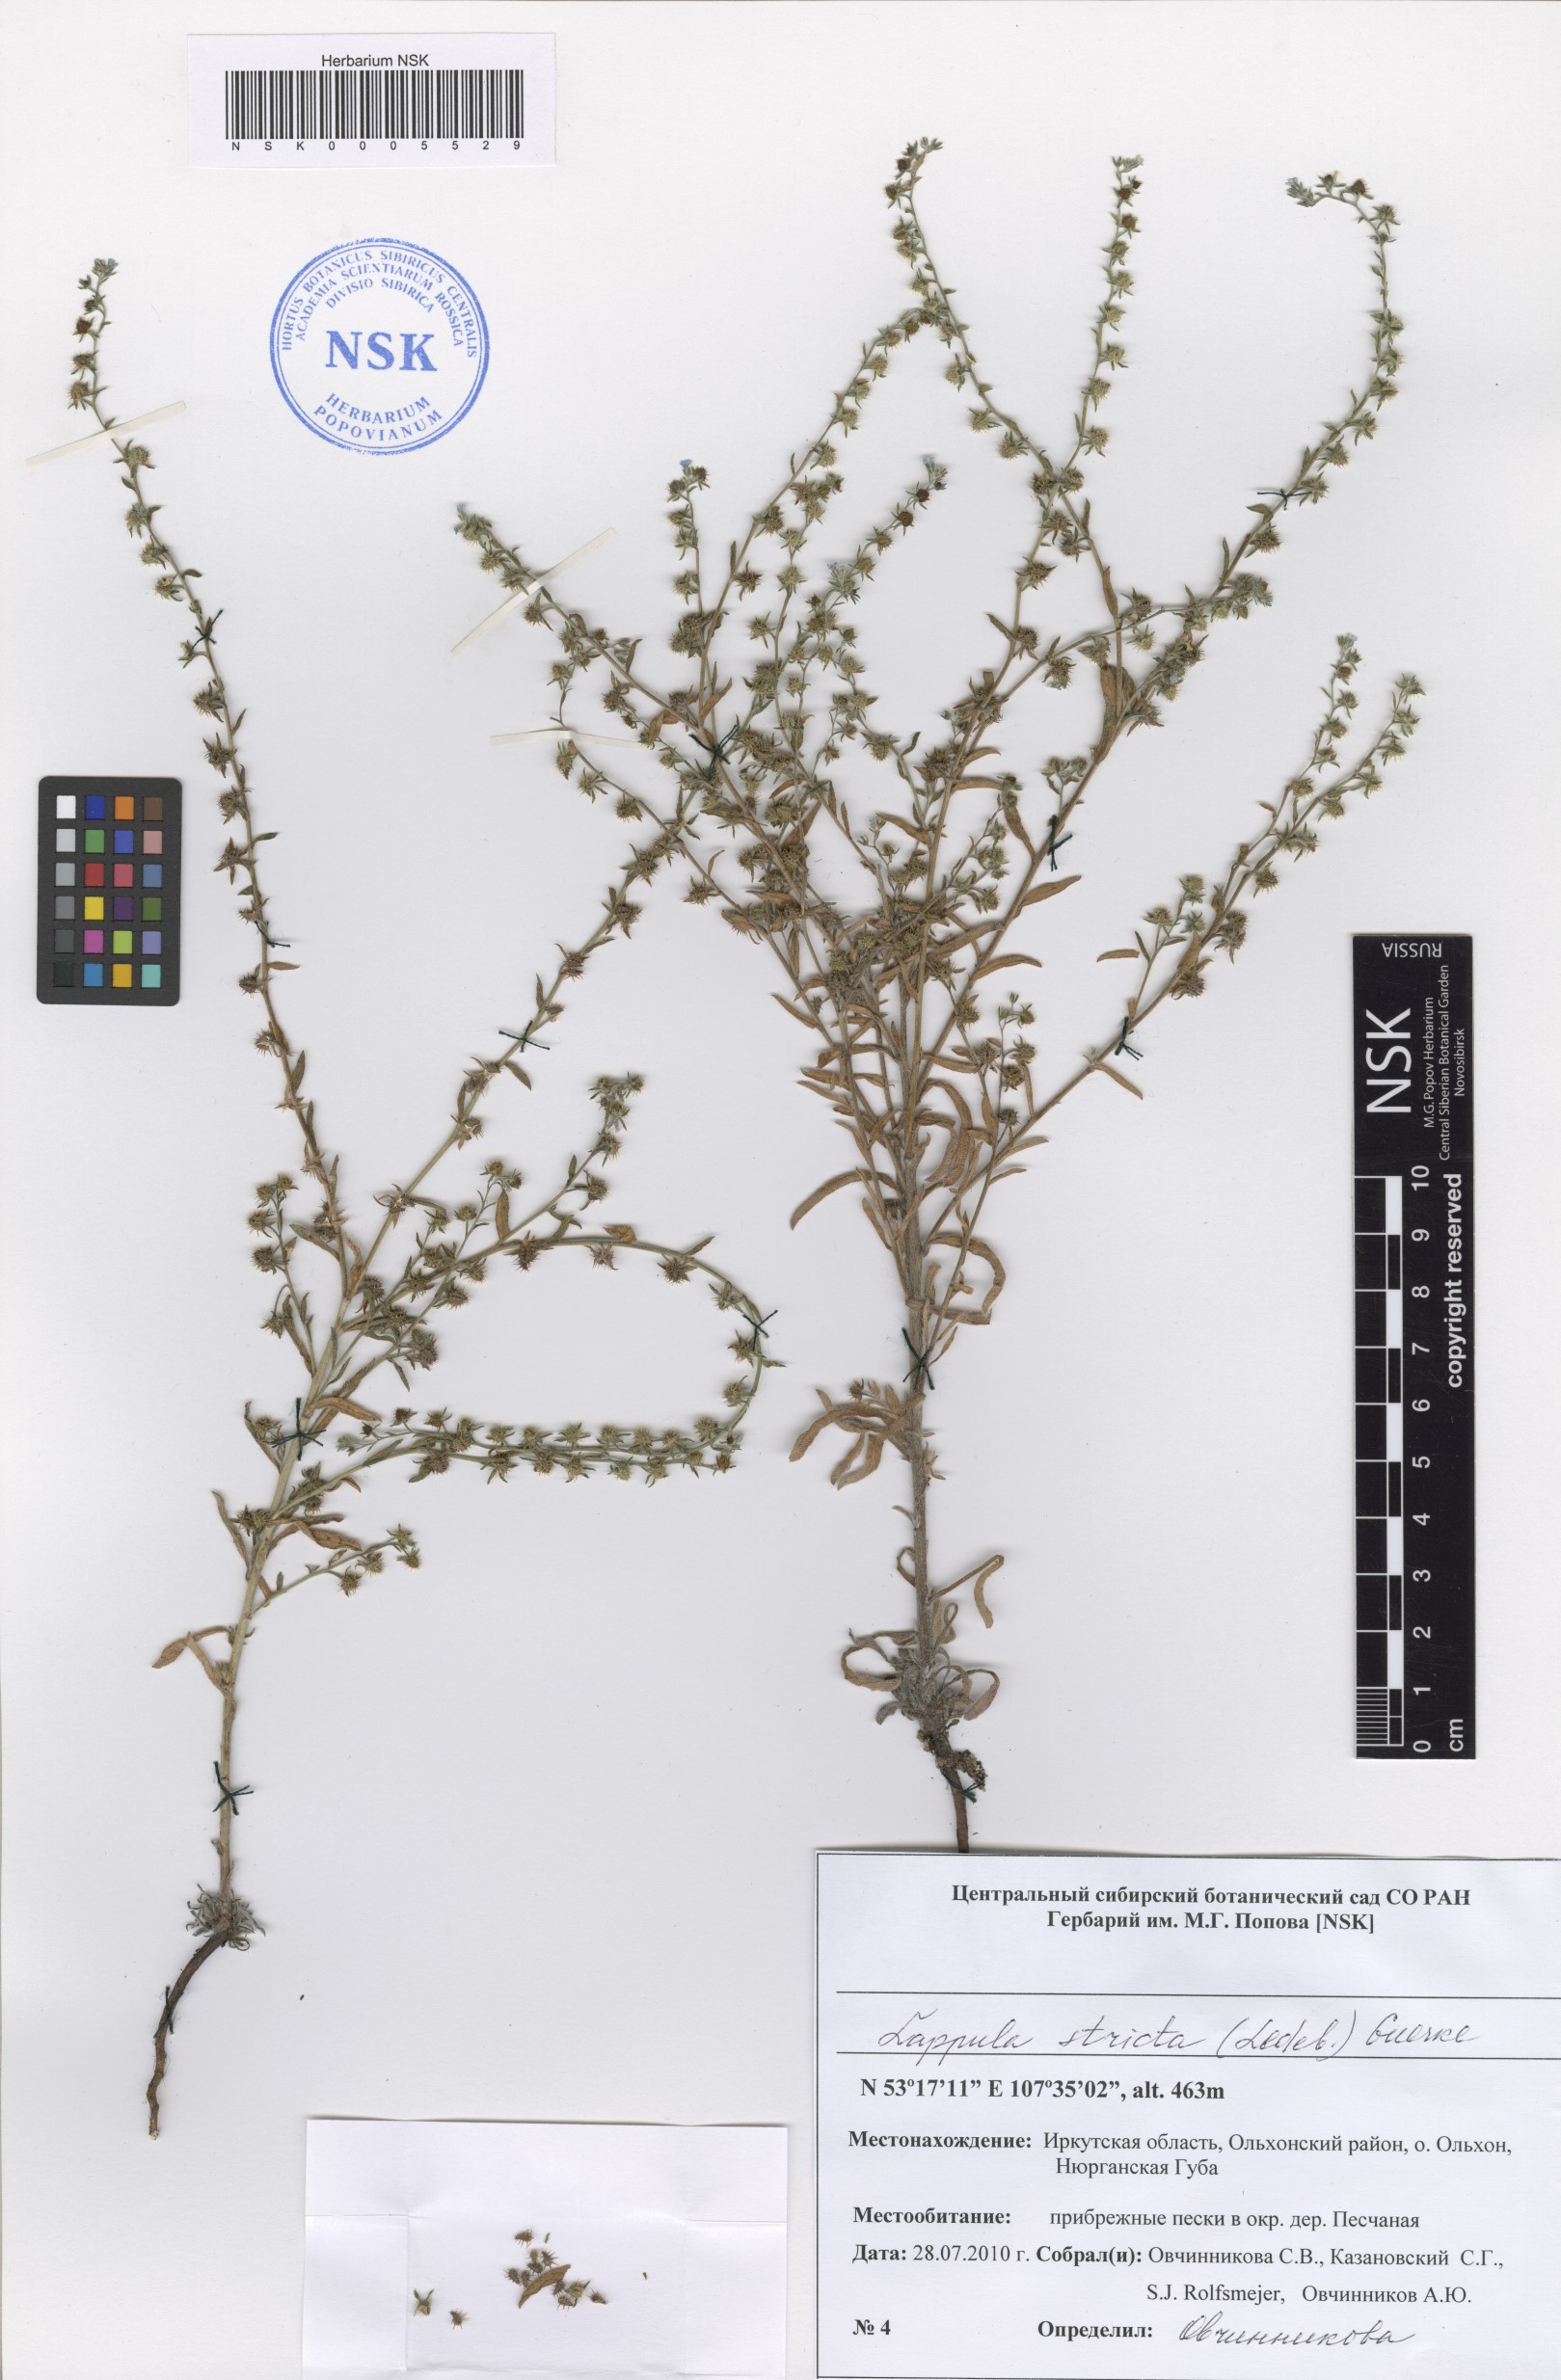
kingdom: Plantae
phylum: Tracheophyta
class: Magnoliopsida
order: Boraginales
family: Boraginaceae
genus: Lappula
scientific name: Lappula stricta
